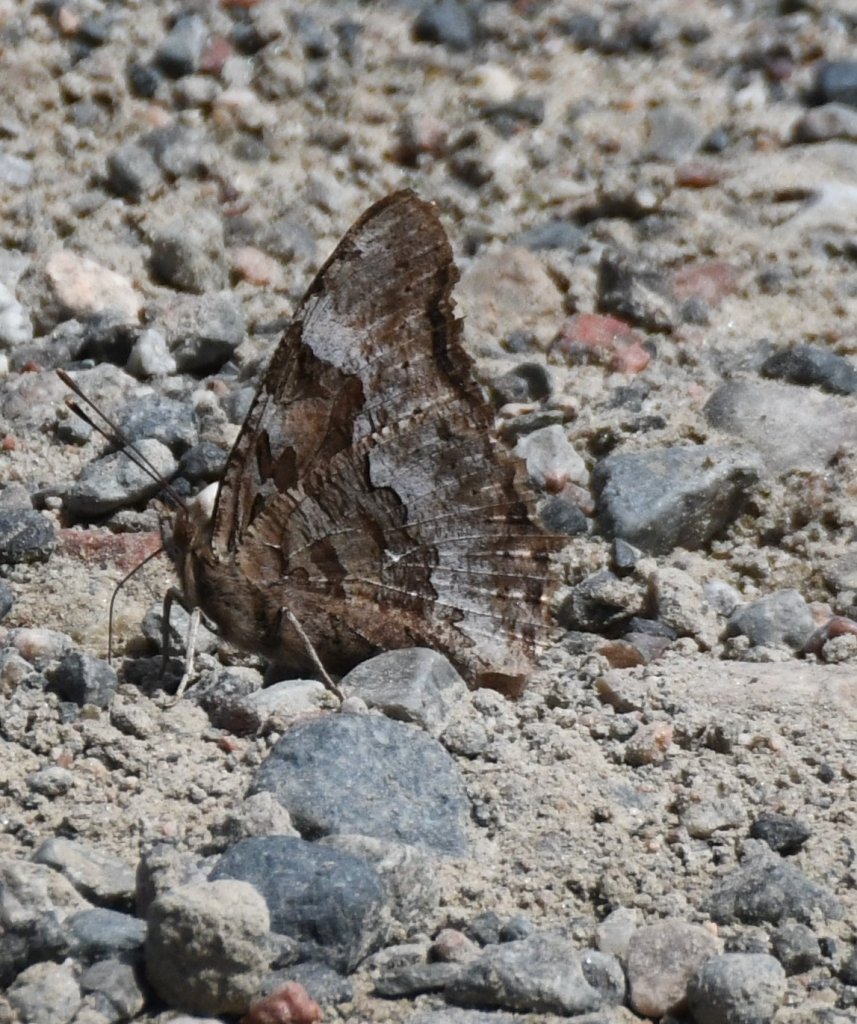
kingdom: Animalia
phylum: Arthropoda
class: Insecta
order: Lepidoptera
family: Nymphalidae
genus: Polygonia
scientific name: Polygonia vaualbum
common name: Compton Tortoiseshell
